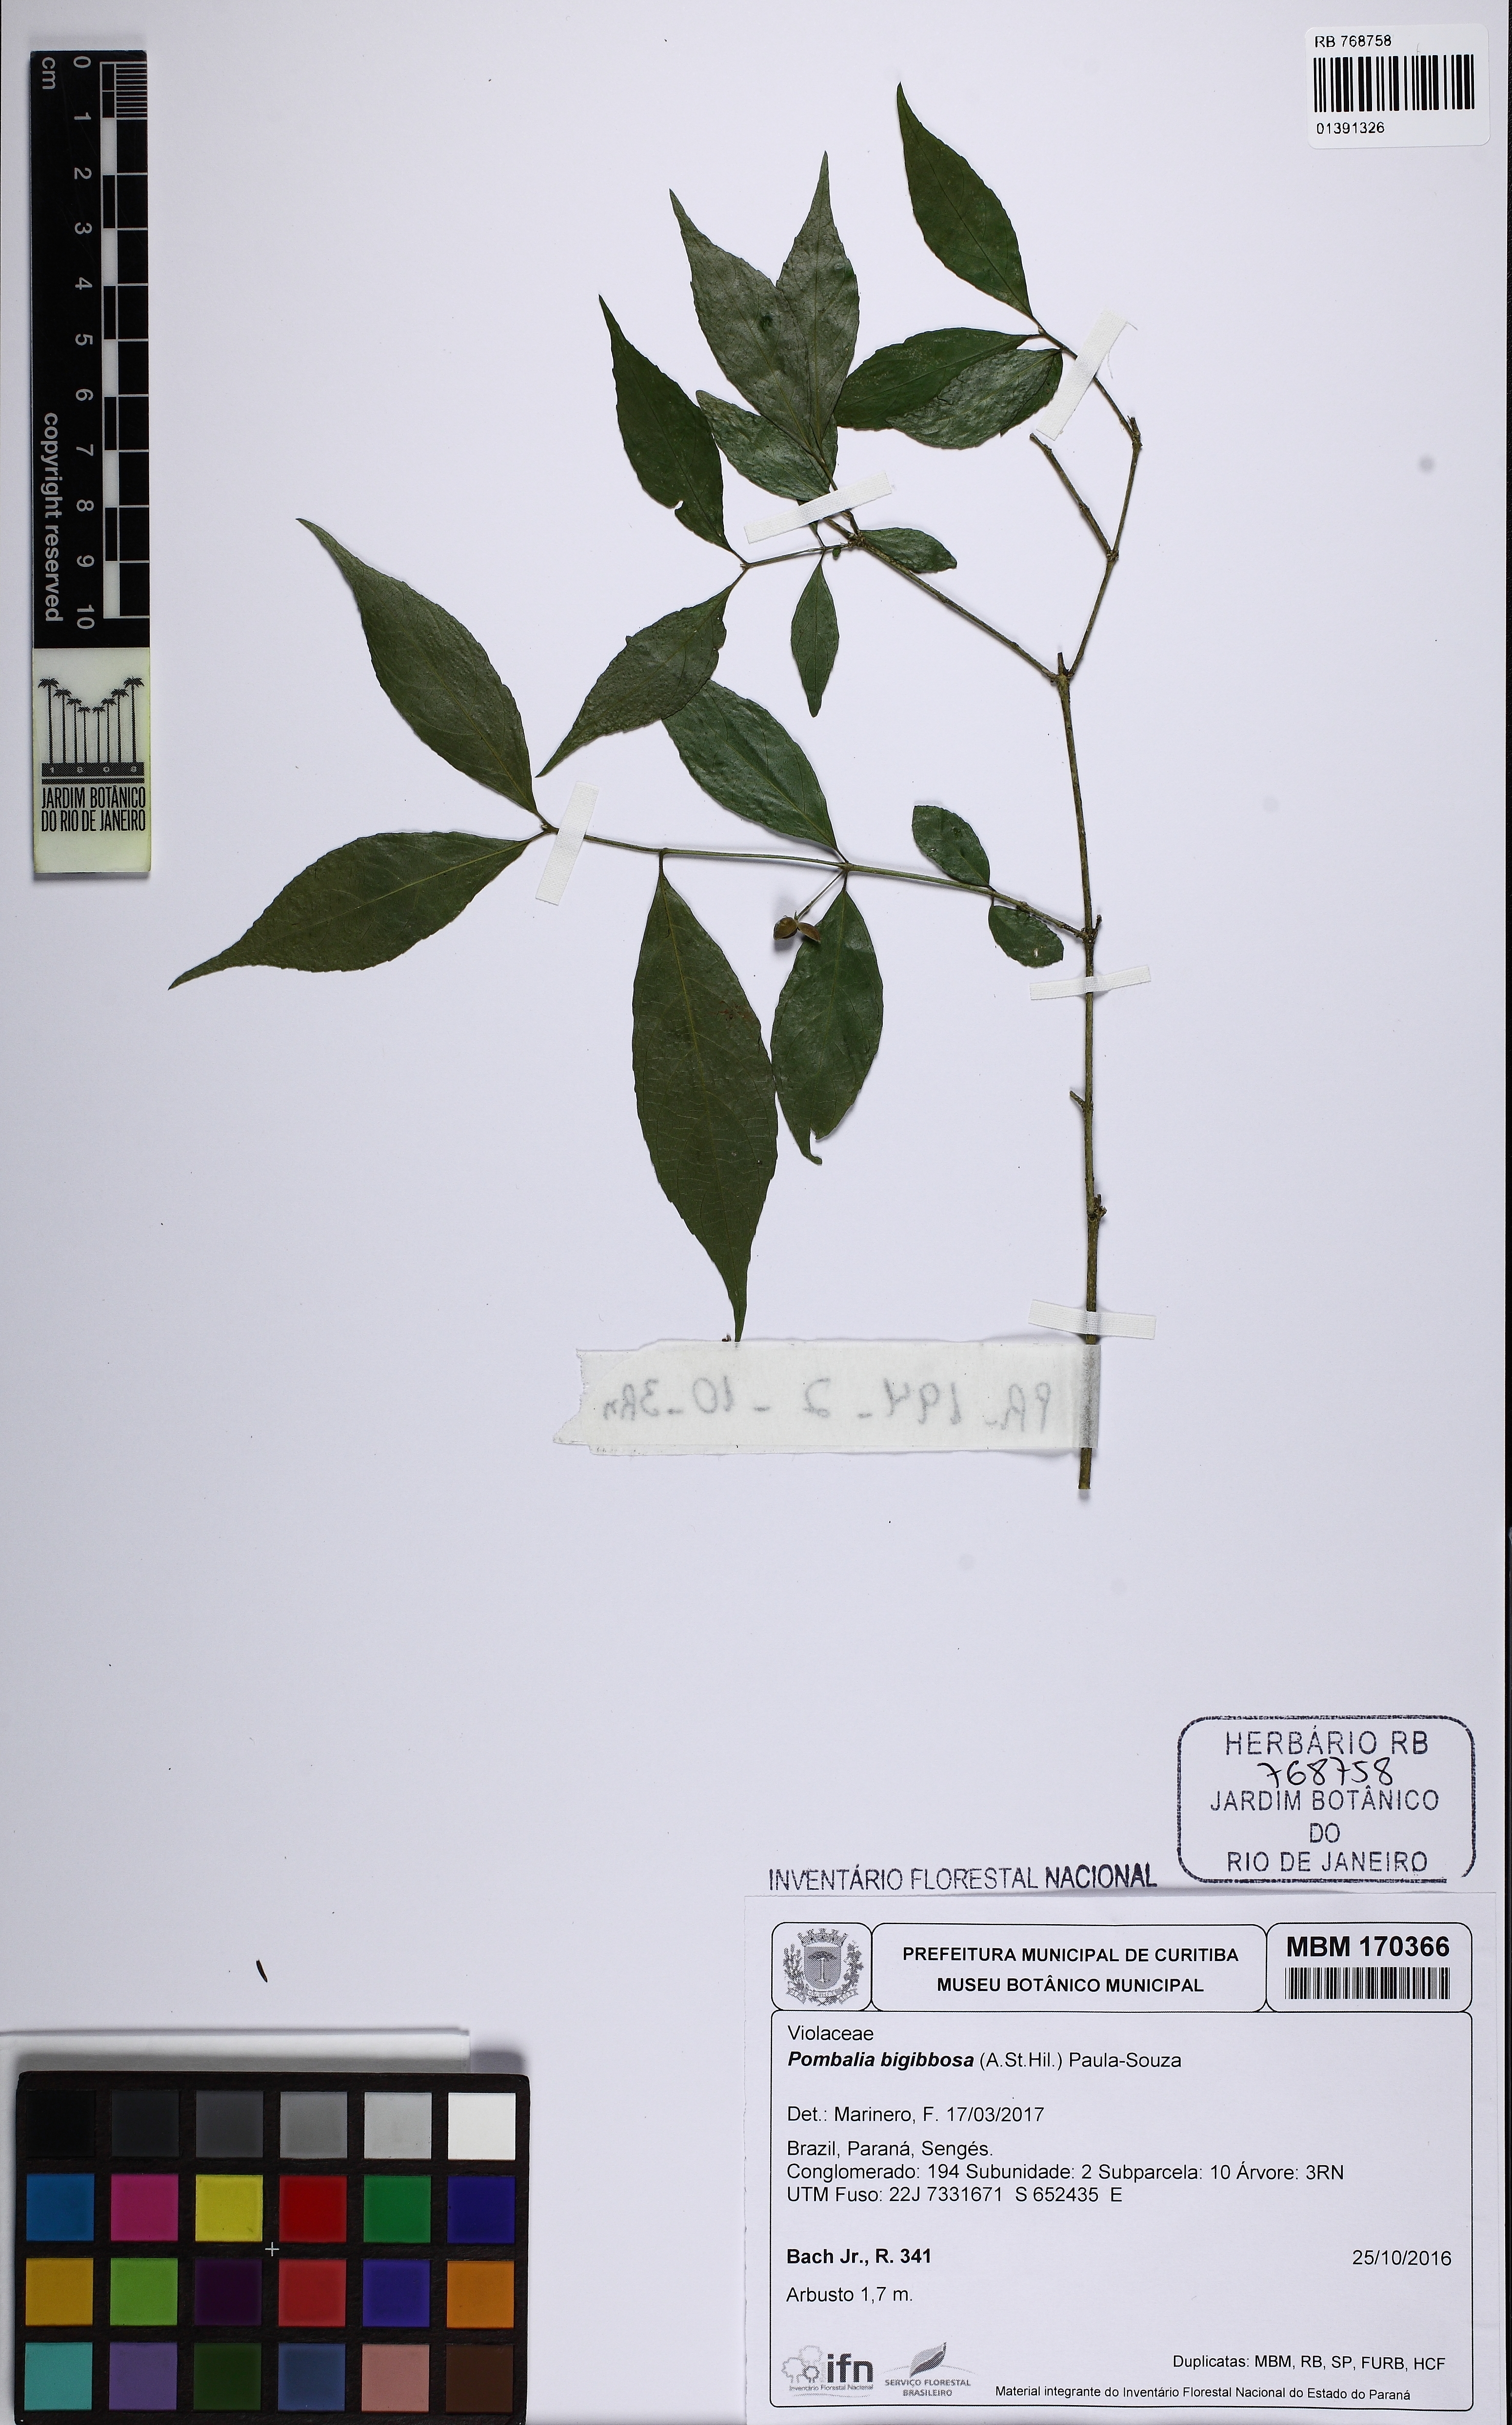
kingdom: Plantae
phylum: Tracheophyta
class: Magnoliopsida
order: Malpighiales
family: Violaceae
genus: Pombalia
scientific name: Pombalia bigibbosa
